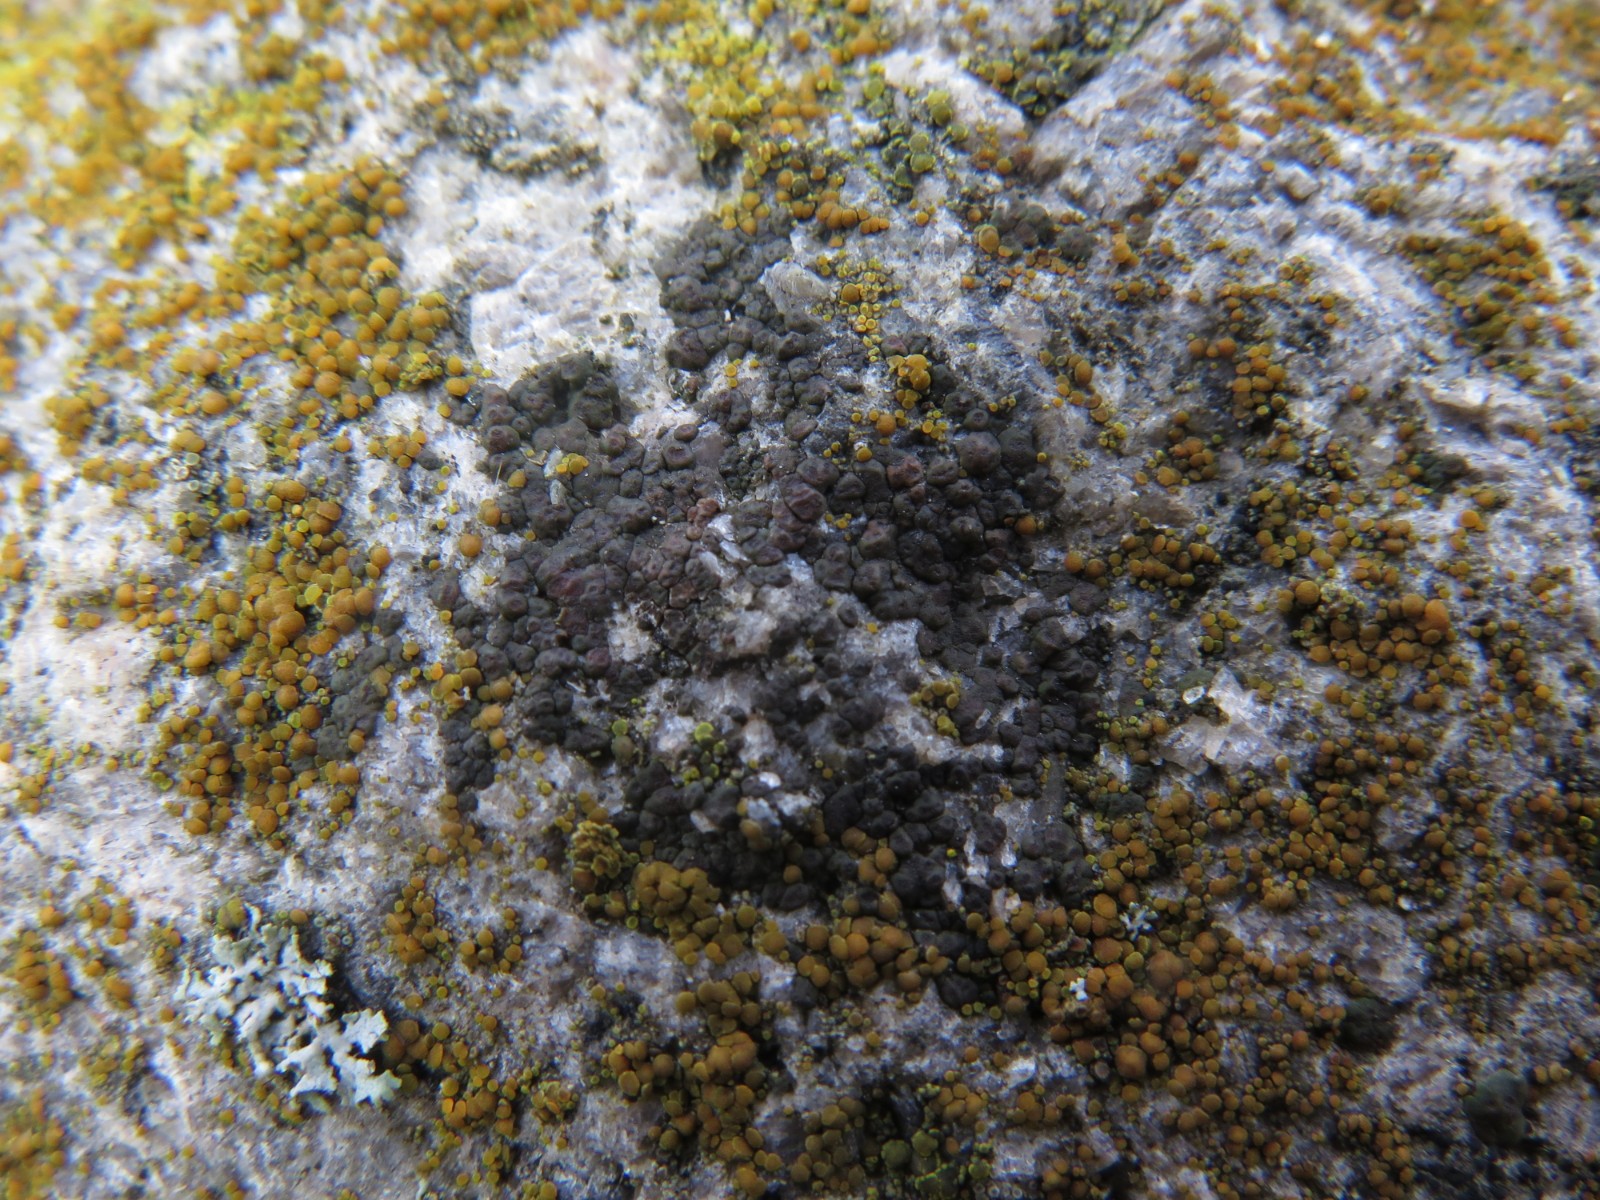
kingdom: Fungi
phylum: Ascomycota
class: Lecanoromycetes
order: Acarosporales
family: Acarosporaceae
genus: Acarospora
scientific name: Acarospora
